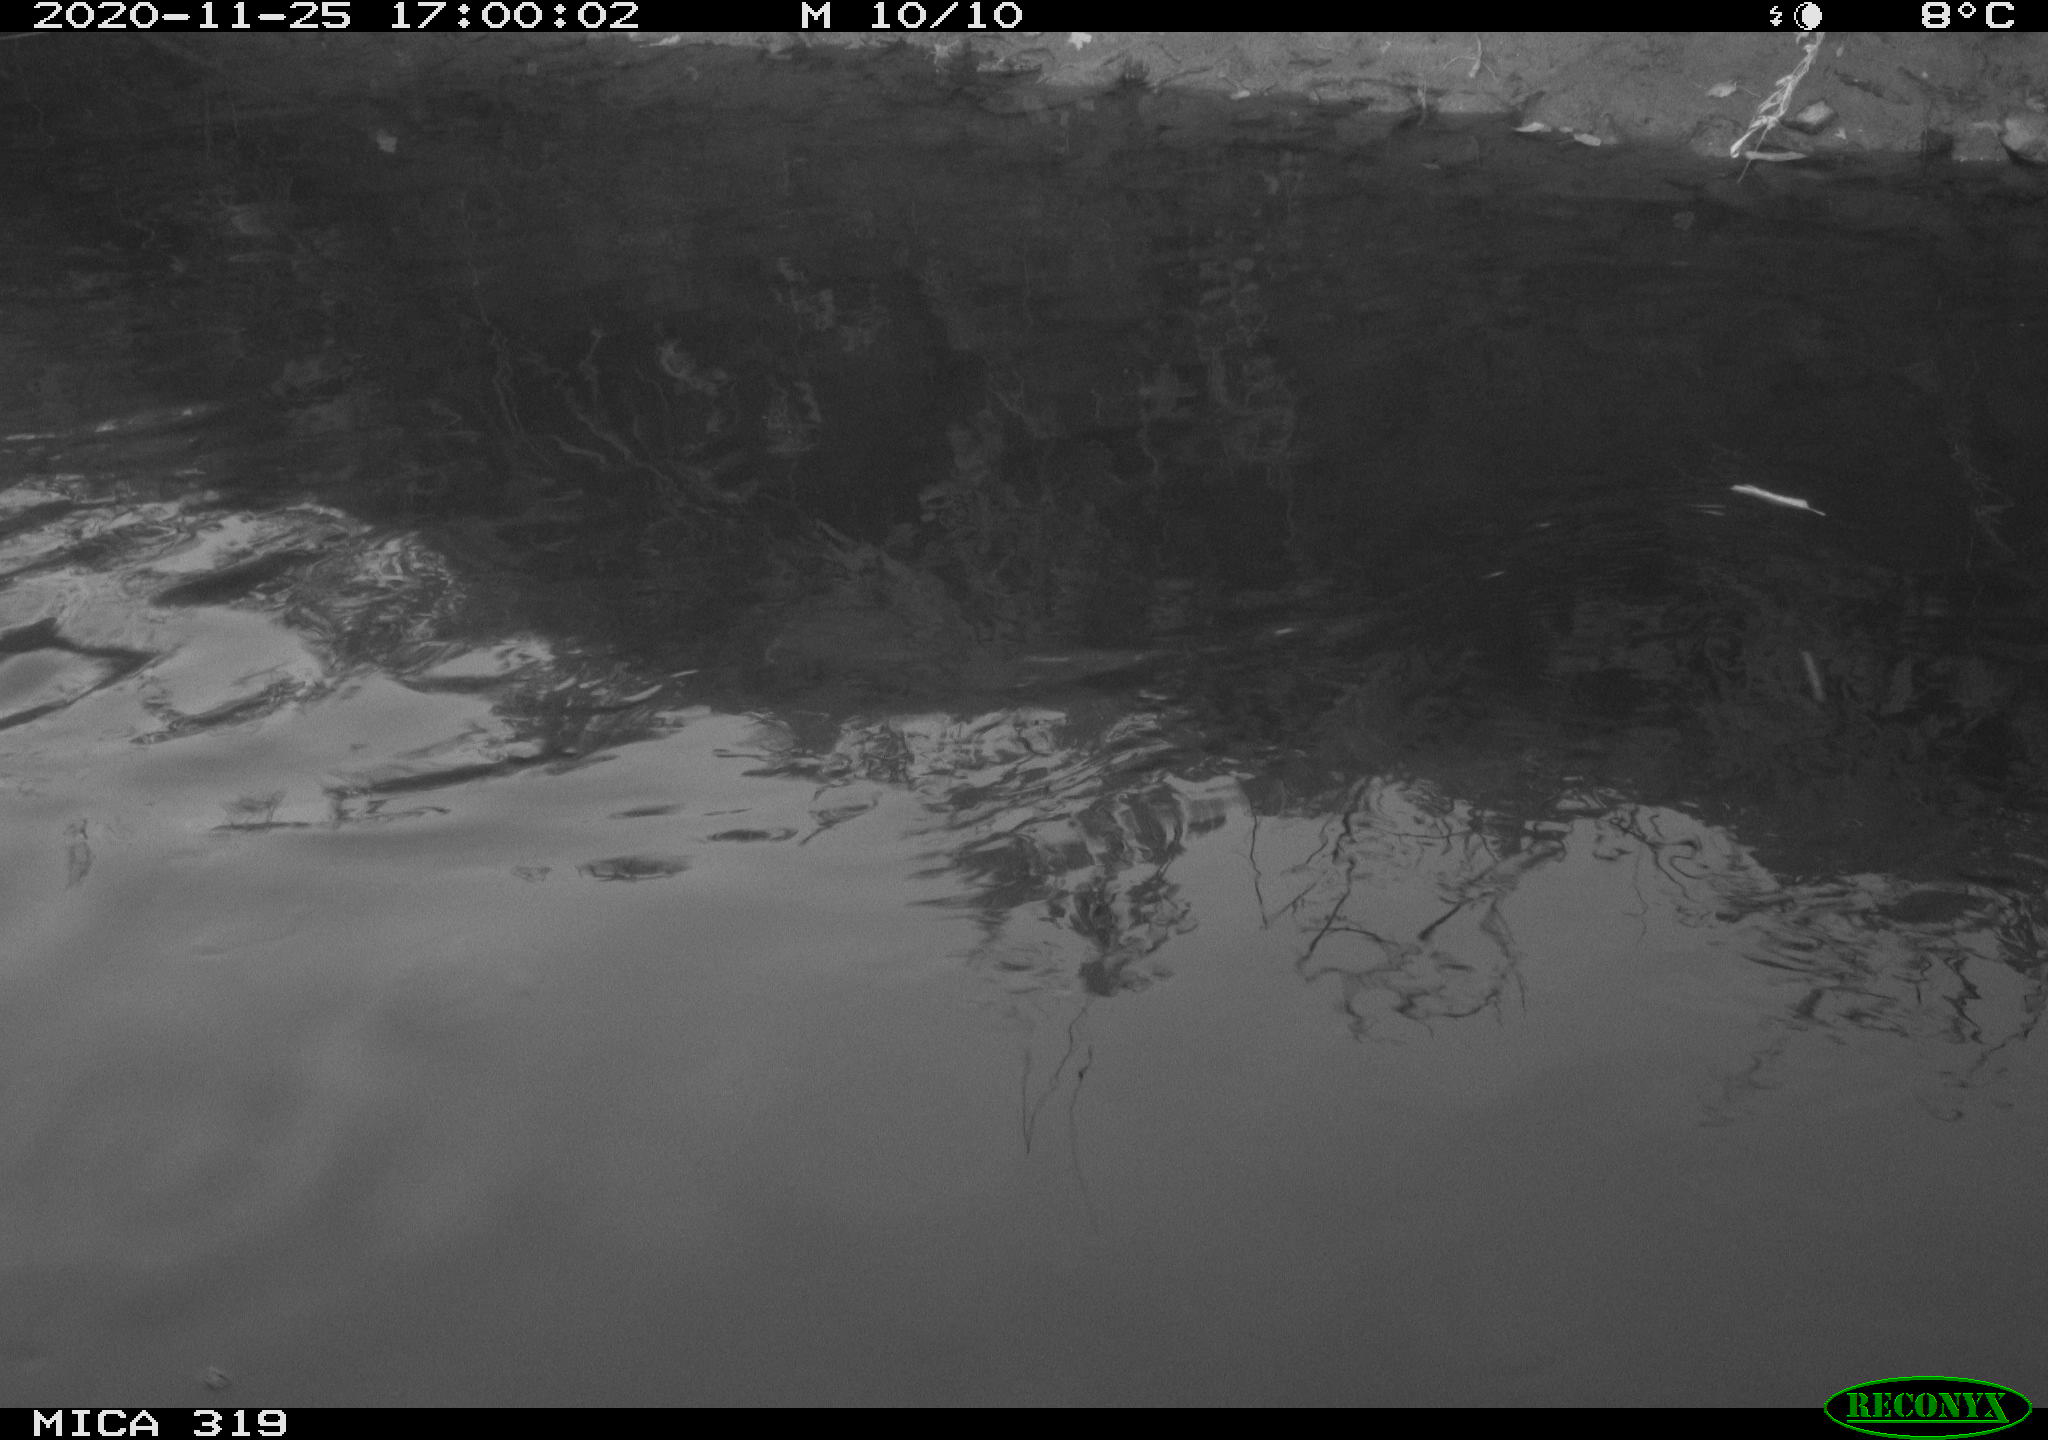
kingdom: Animalia
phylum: Chordata
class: Aves
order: Gruiformes
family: Rallidae
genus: Gallinula
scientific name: Gallinula chloropus
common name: Common moorhen
